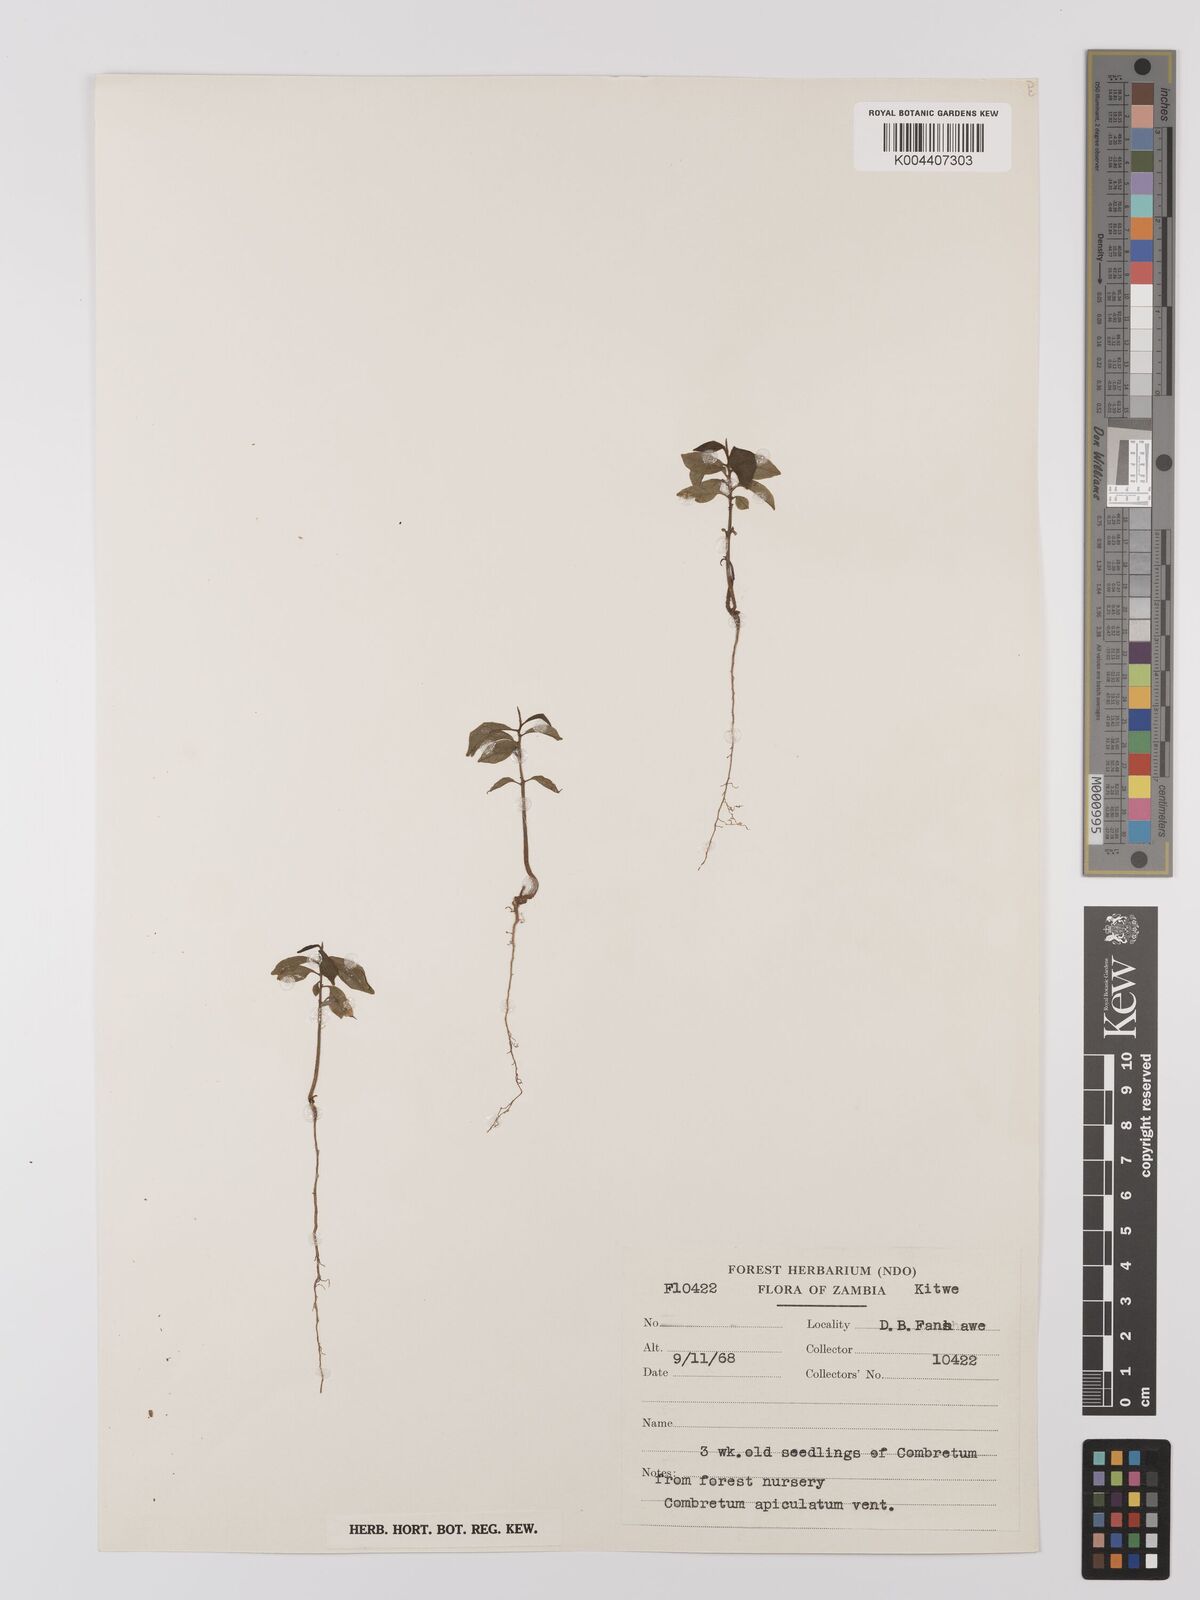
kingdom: Plantae
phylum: Tracheophyta
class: Magnoliopsida
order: Myrtales
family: Combretaceae
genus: Combretum
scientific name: Combretum apiculatum
